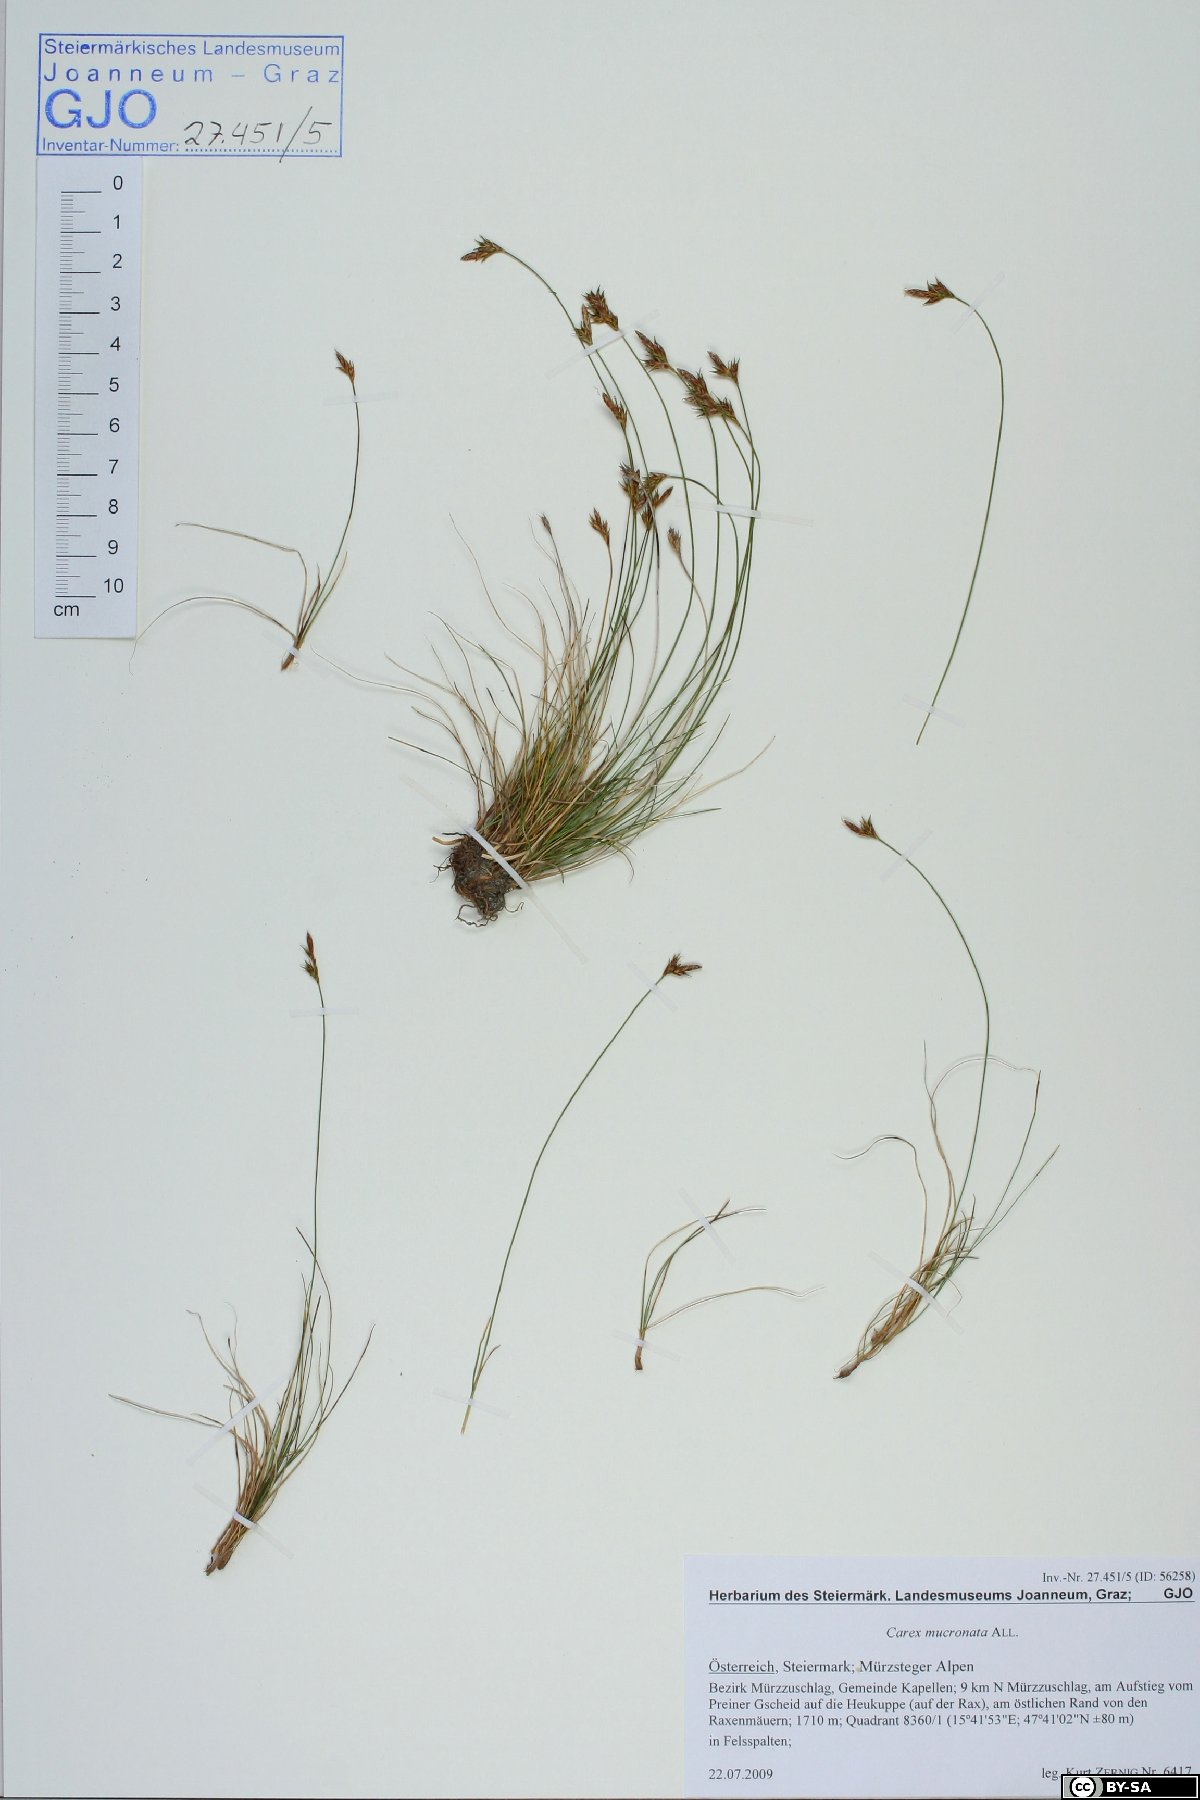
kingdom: Plantae
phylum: Tracheophyta
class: Liliopsida
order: Poales
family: Cyperaceae
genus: Carex
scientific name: Carex mucronata
